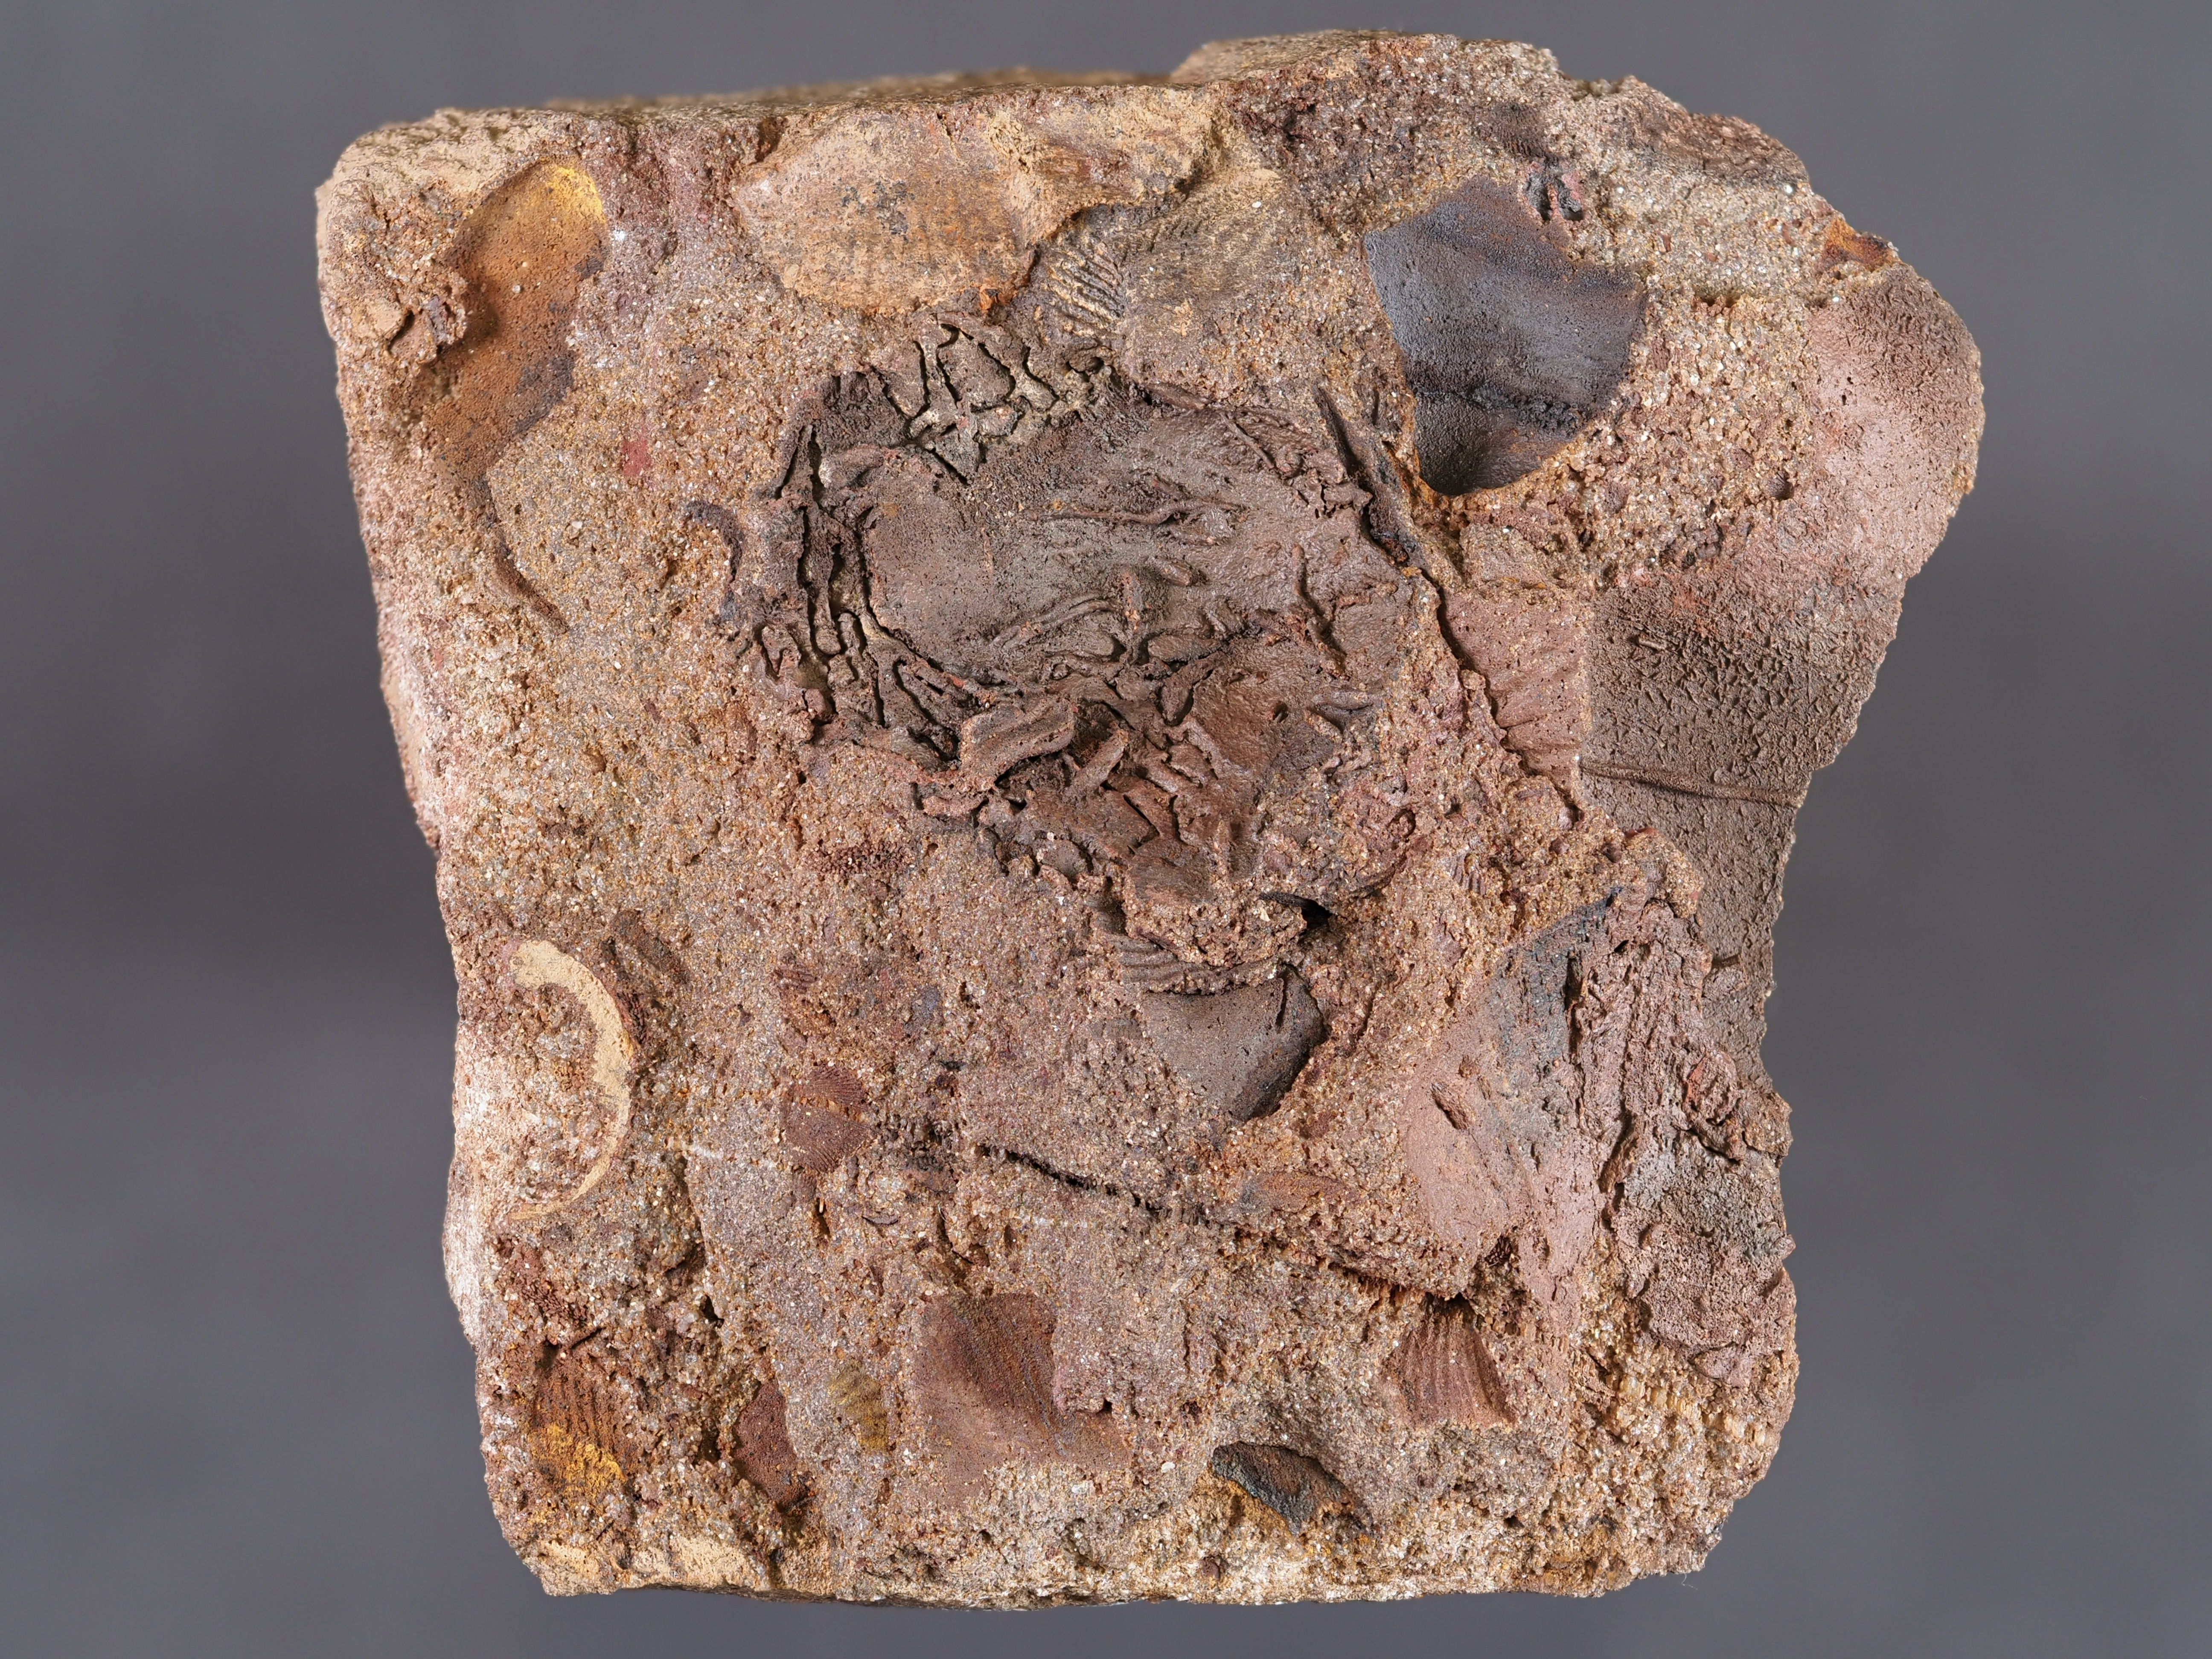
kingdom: Animalia
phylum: Mollusca
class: Bivalvia
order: Modiomorphida
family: Modiomorphidae
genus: Goniomorpha
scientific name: Goniomorpha
